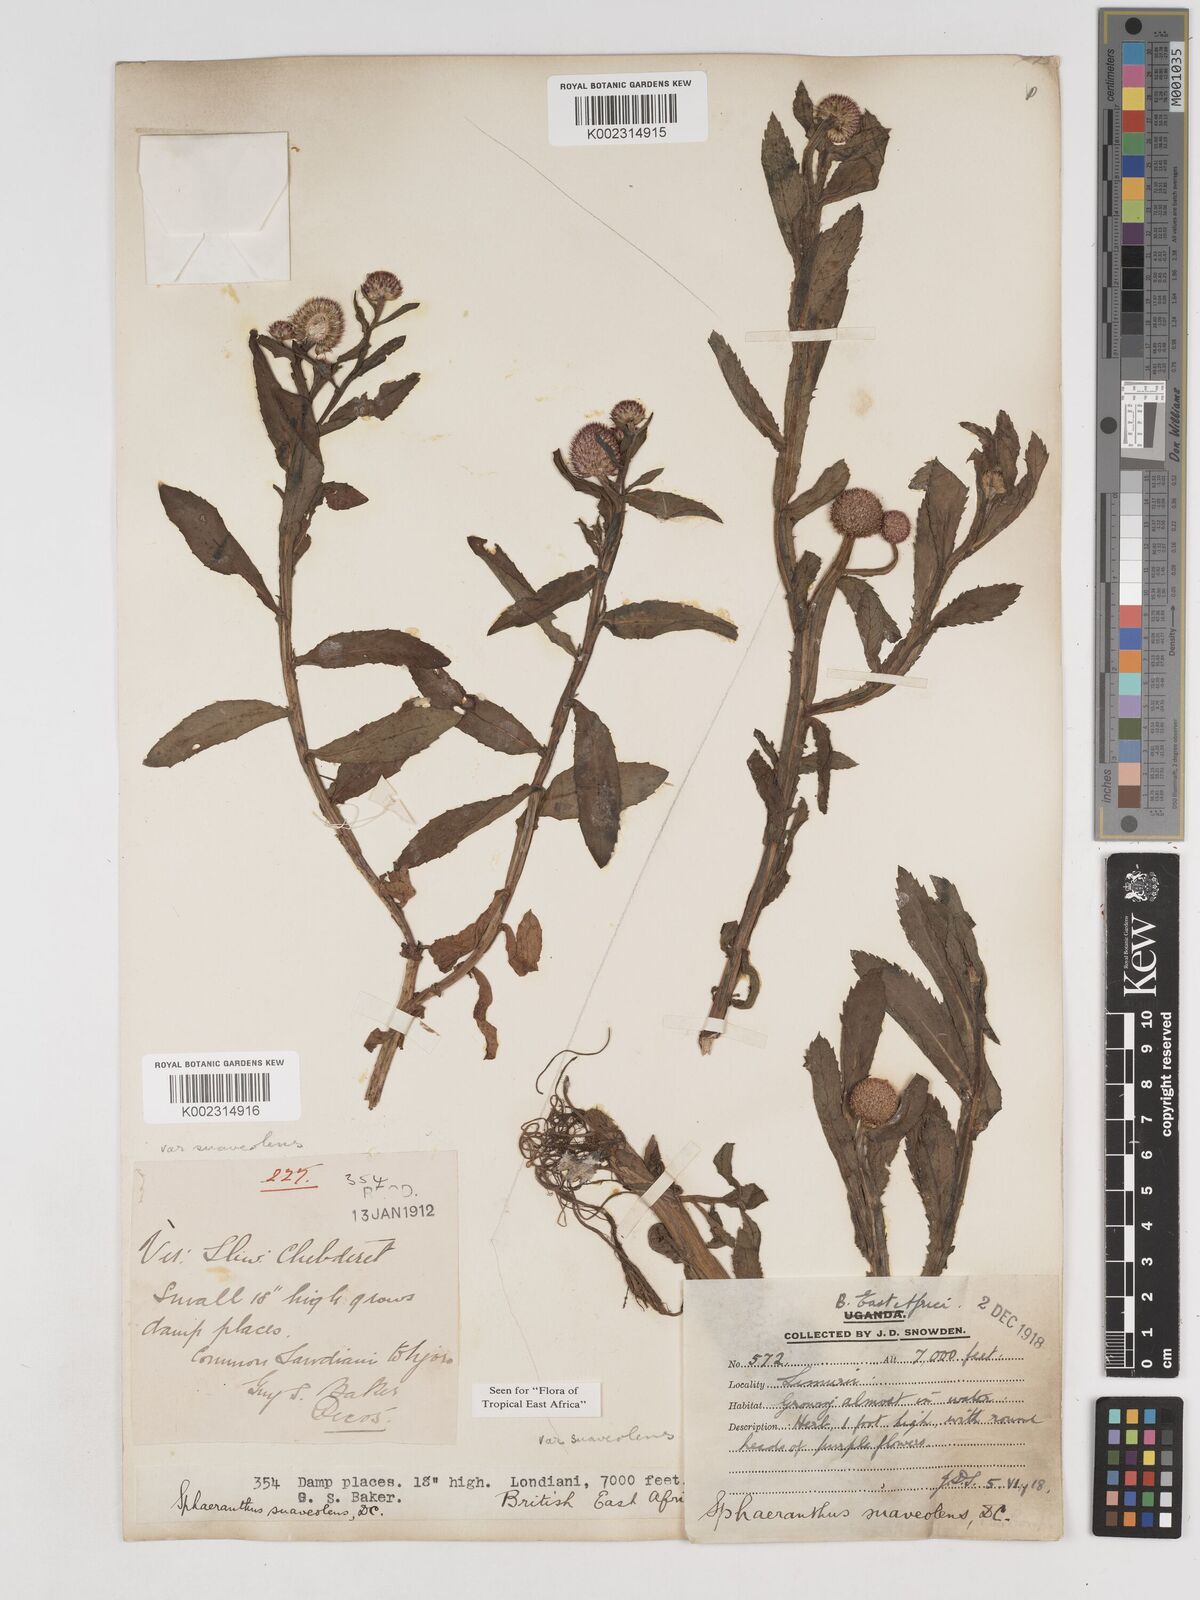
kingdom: Plantae
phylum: Tracheophyta
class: Magnoliopsida
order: Asterales
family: Asteraceae
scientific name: Asteraceae
